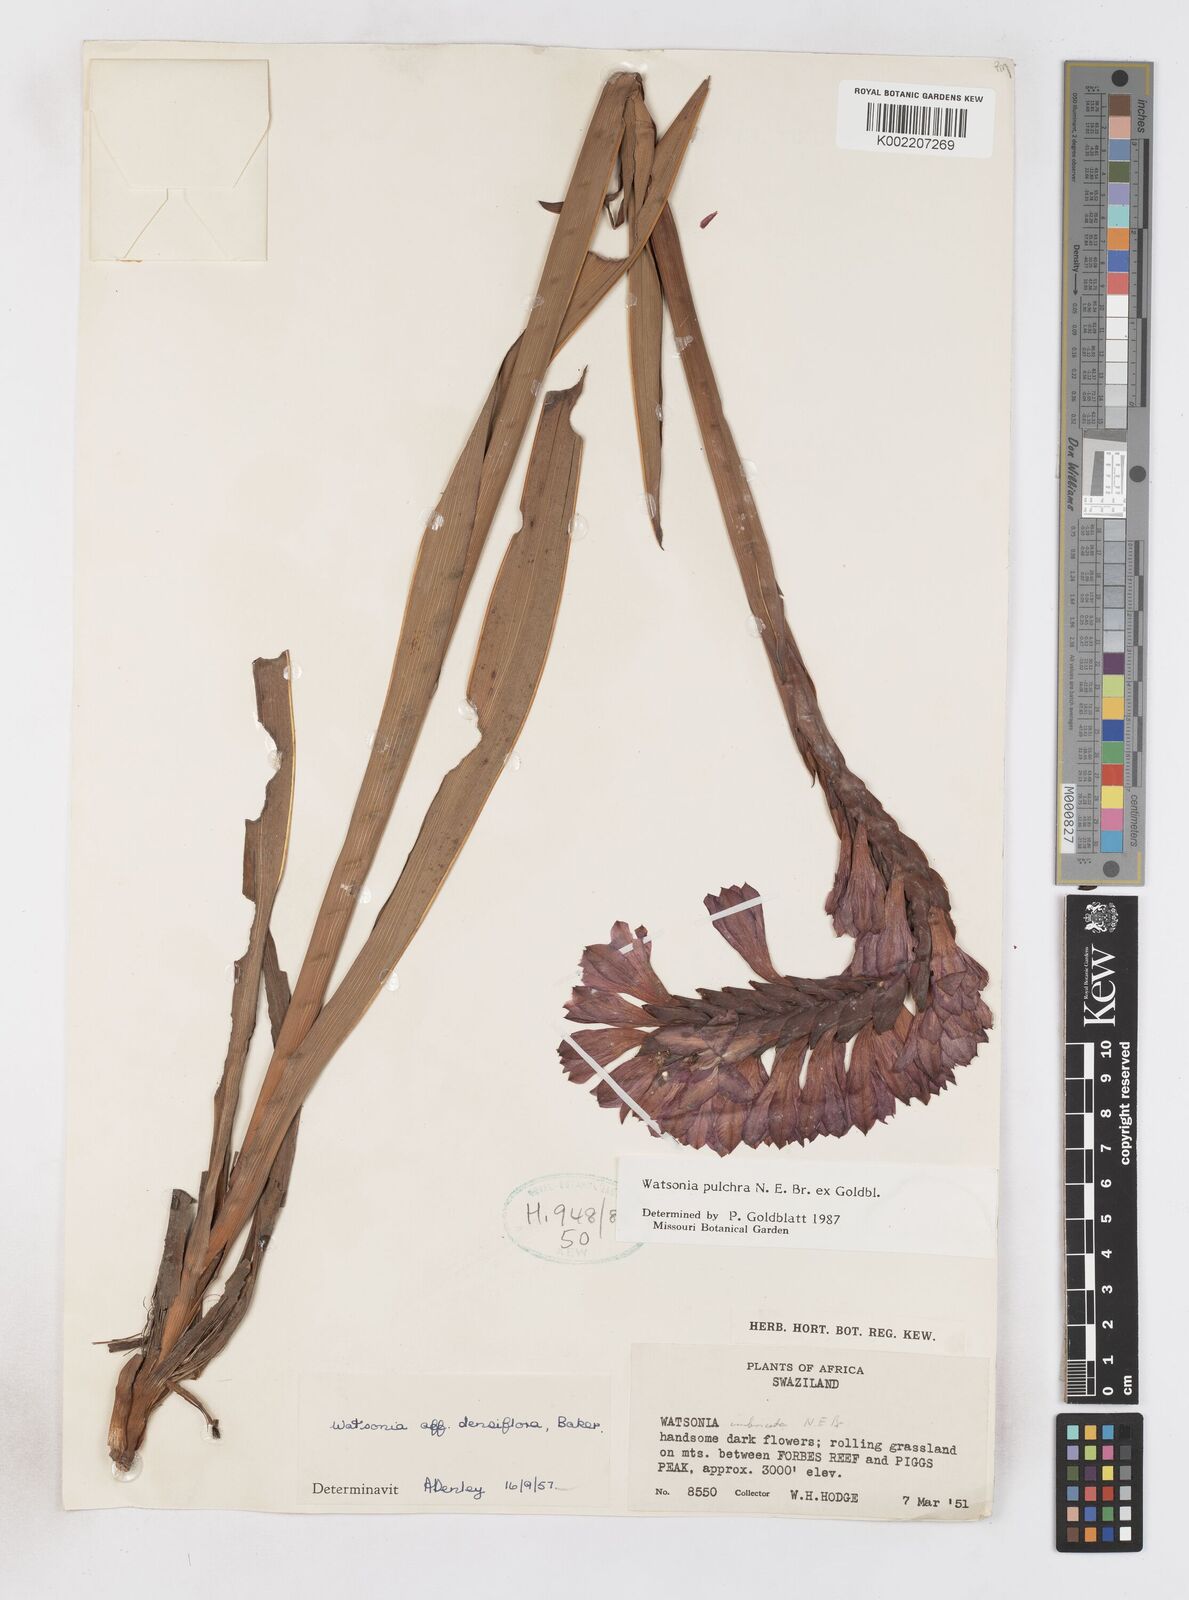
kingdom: Plantae
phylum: Tracheophyta
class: Liliopsida
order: Asparagales
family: Iridaceae
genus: Watsonia
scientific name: Watsonia pulchra
